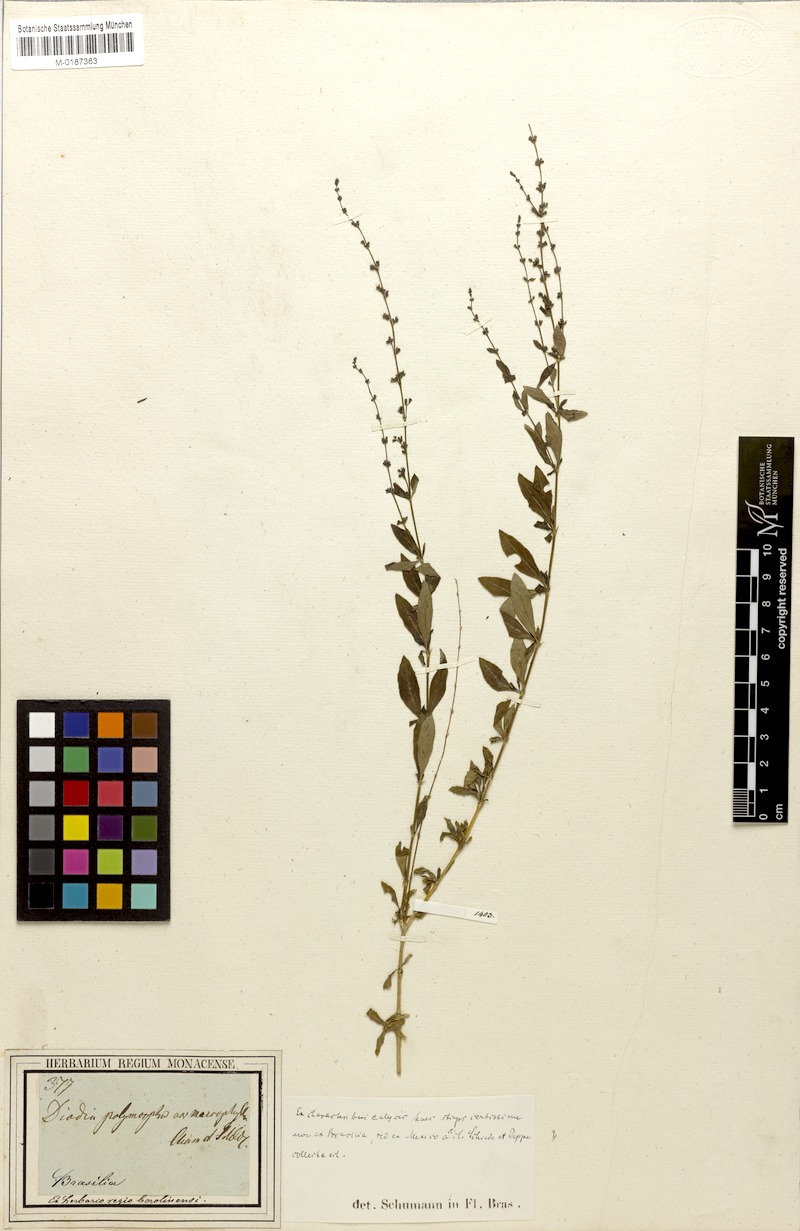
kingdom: Plantae
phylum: Tracheophyta
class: Magnoliopsida
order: Gentianales
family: Rubiaceae
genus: Galianthe
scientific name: Galianthe brasiliensis
